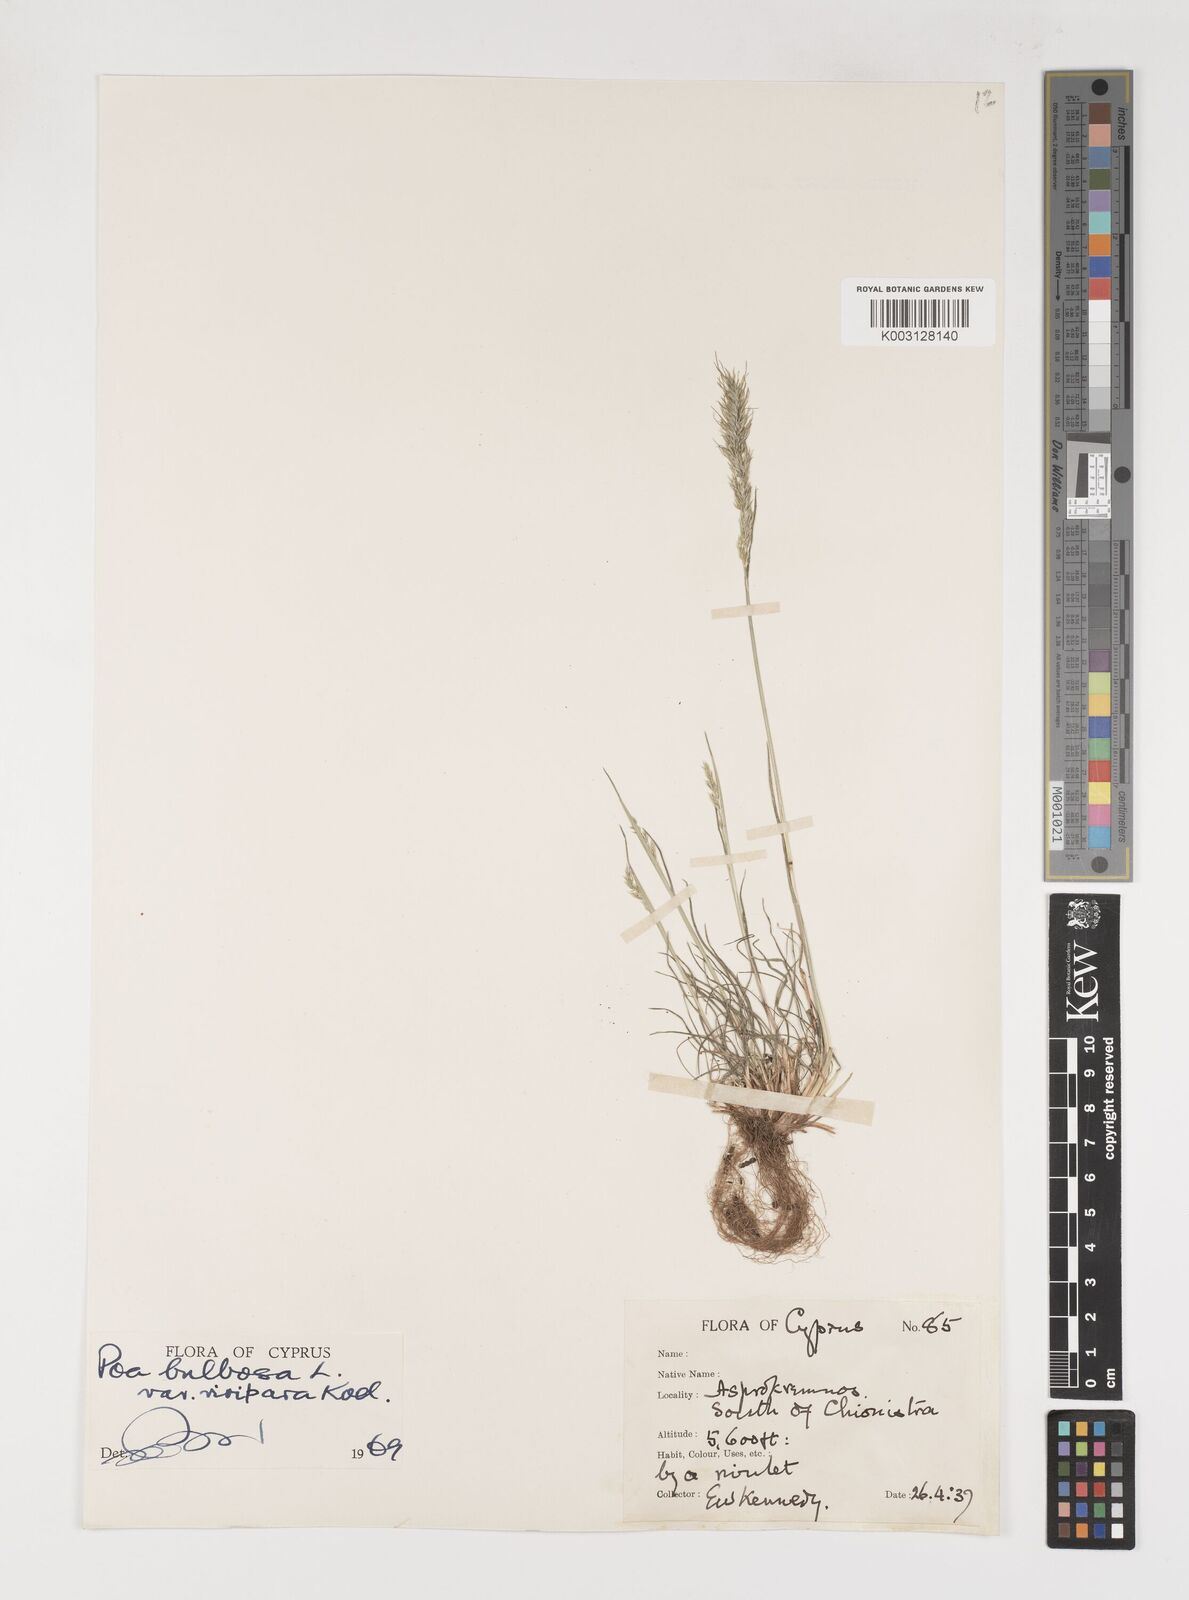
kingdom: Plantae
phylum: Tracheophyta
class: Liliopsida
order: Poales
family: Poaceae
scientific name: Poaceae
